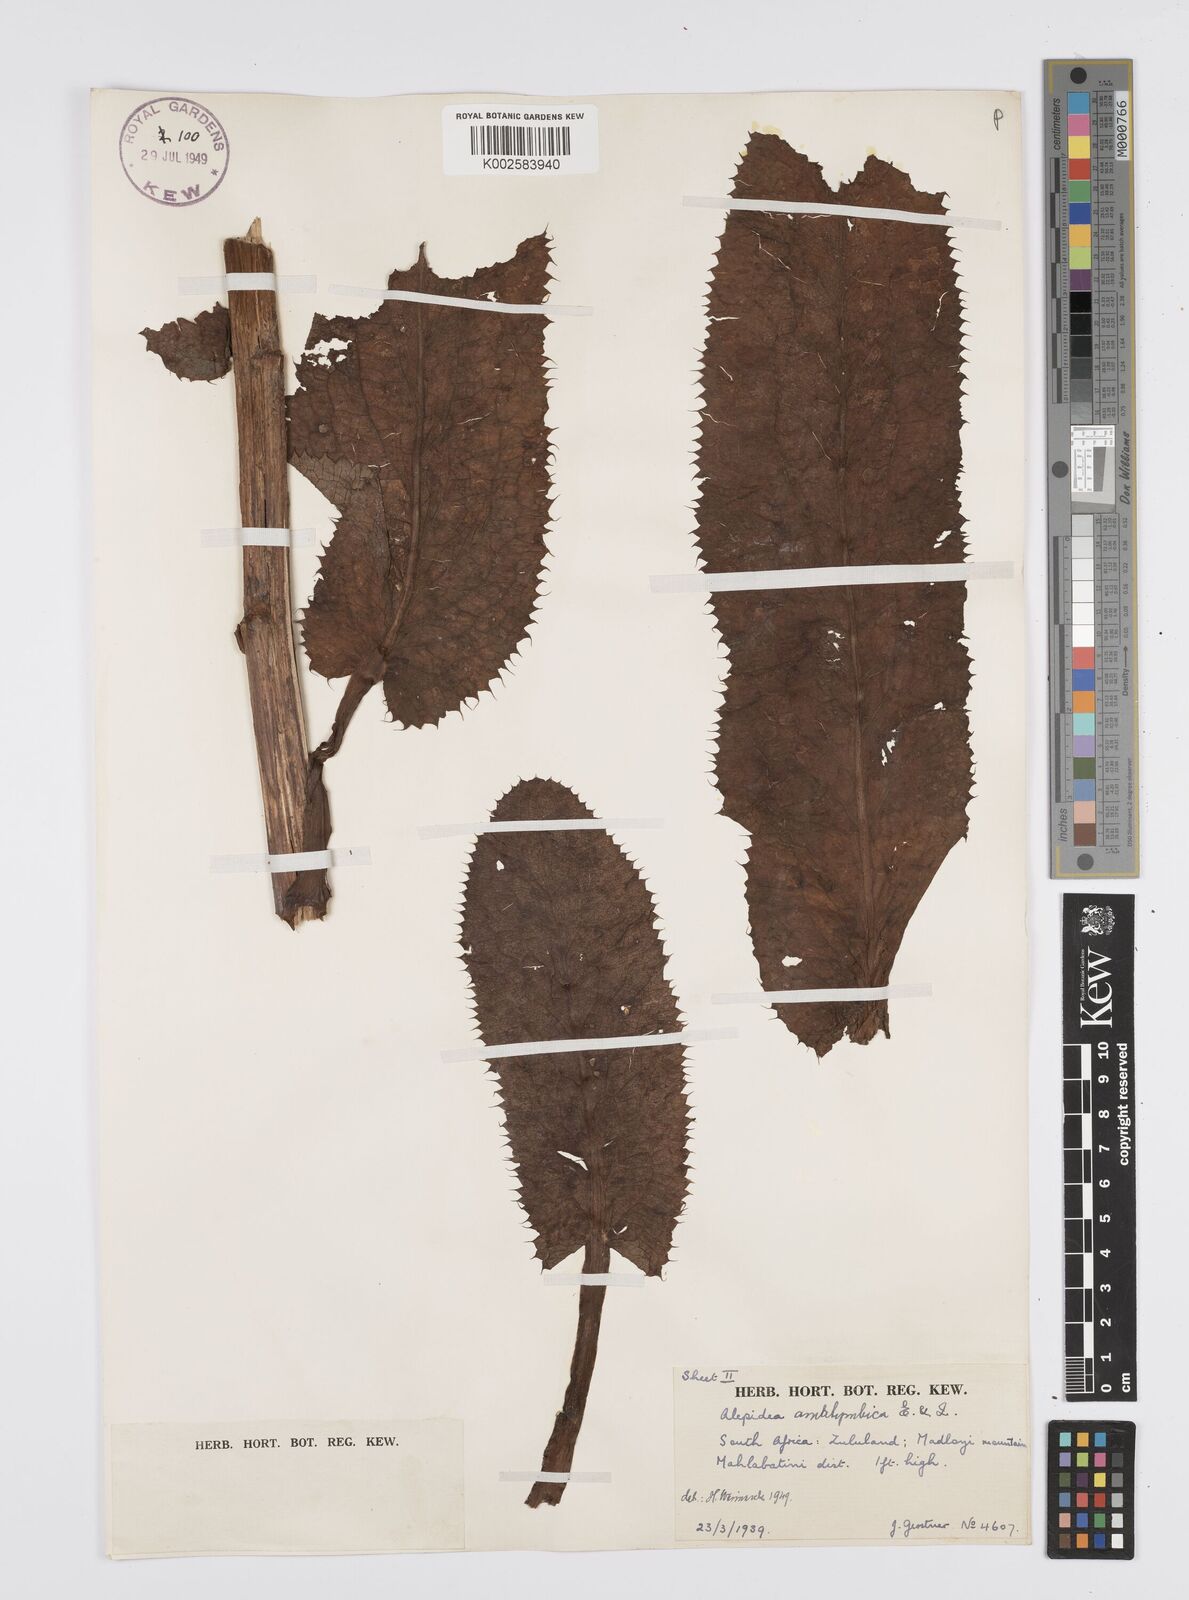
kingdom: Plantae
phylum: Tracheophyta
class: Magnoliopsida
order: Apiales
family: Apiaceae
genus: Alepidea
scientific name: Alepidea amatymbica
